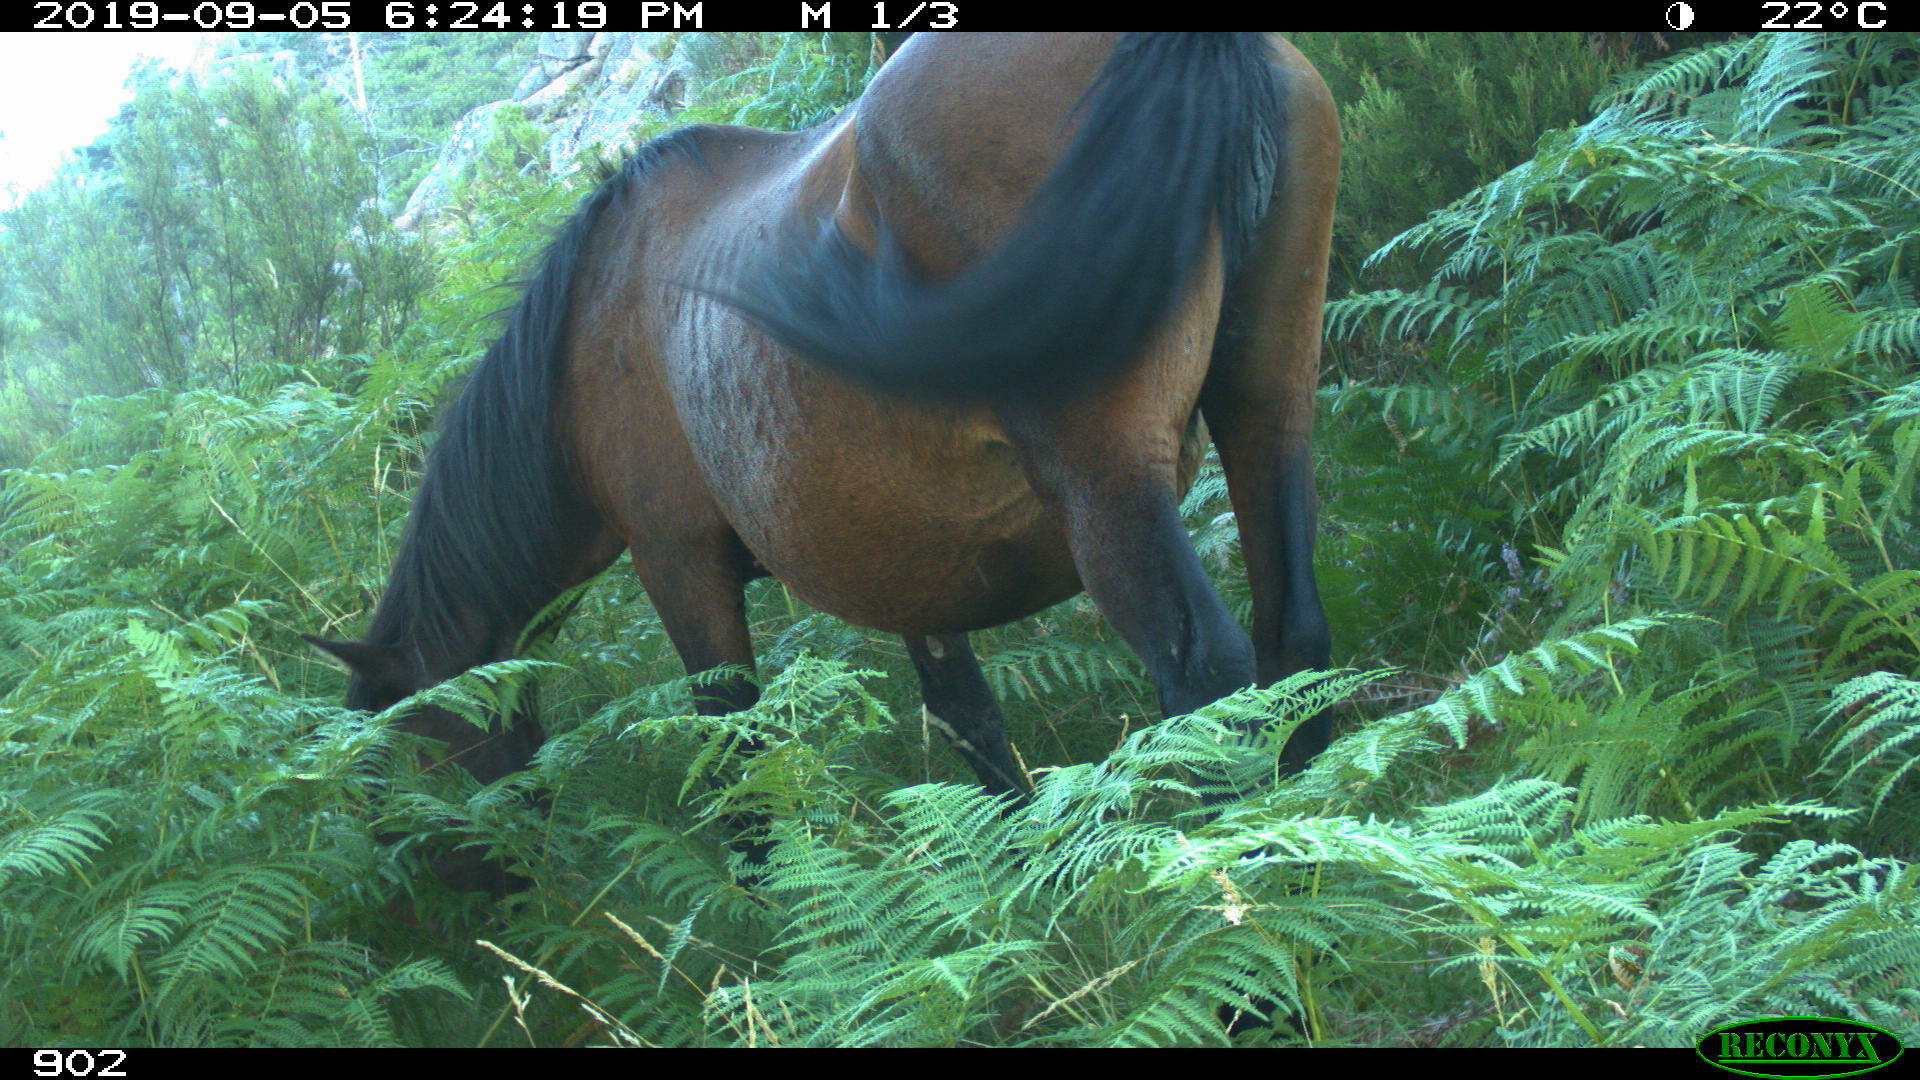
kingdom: Animalia
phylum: Chordata
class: Mammalia
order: Perissodactyla
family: Equidae
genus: Equus
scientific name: Equus caballus
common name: Horse
